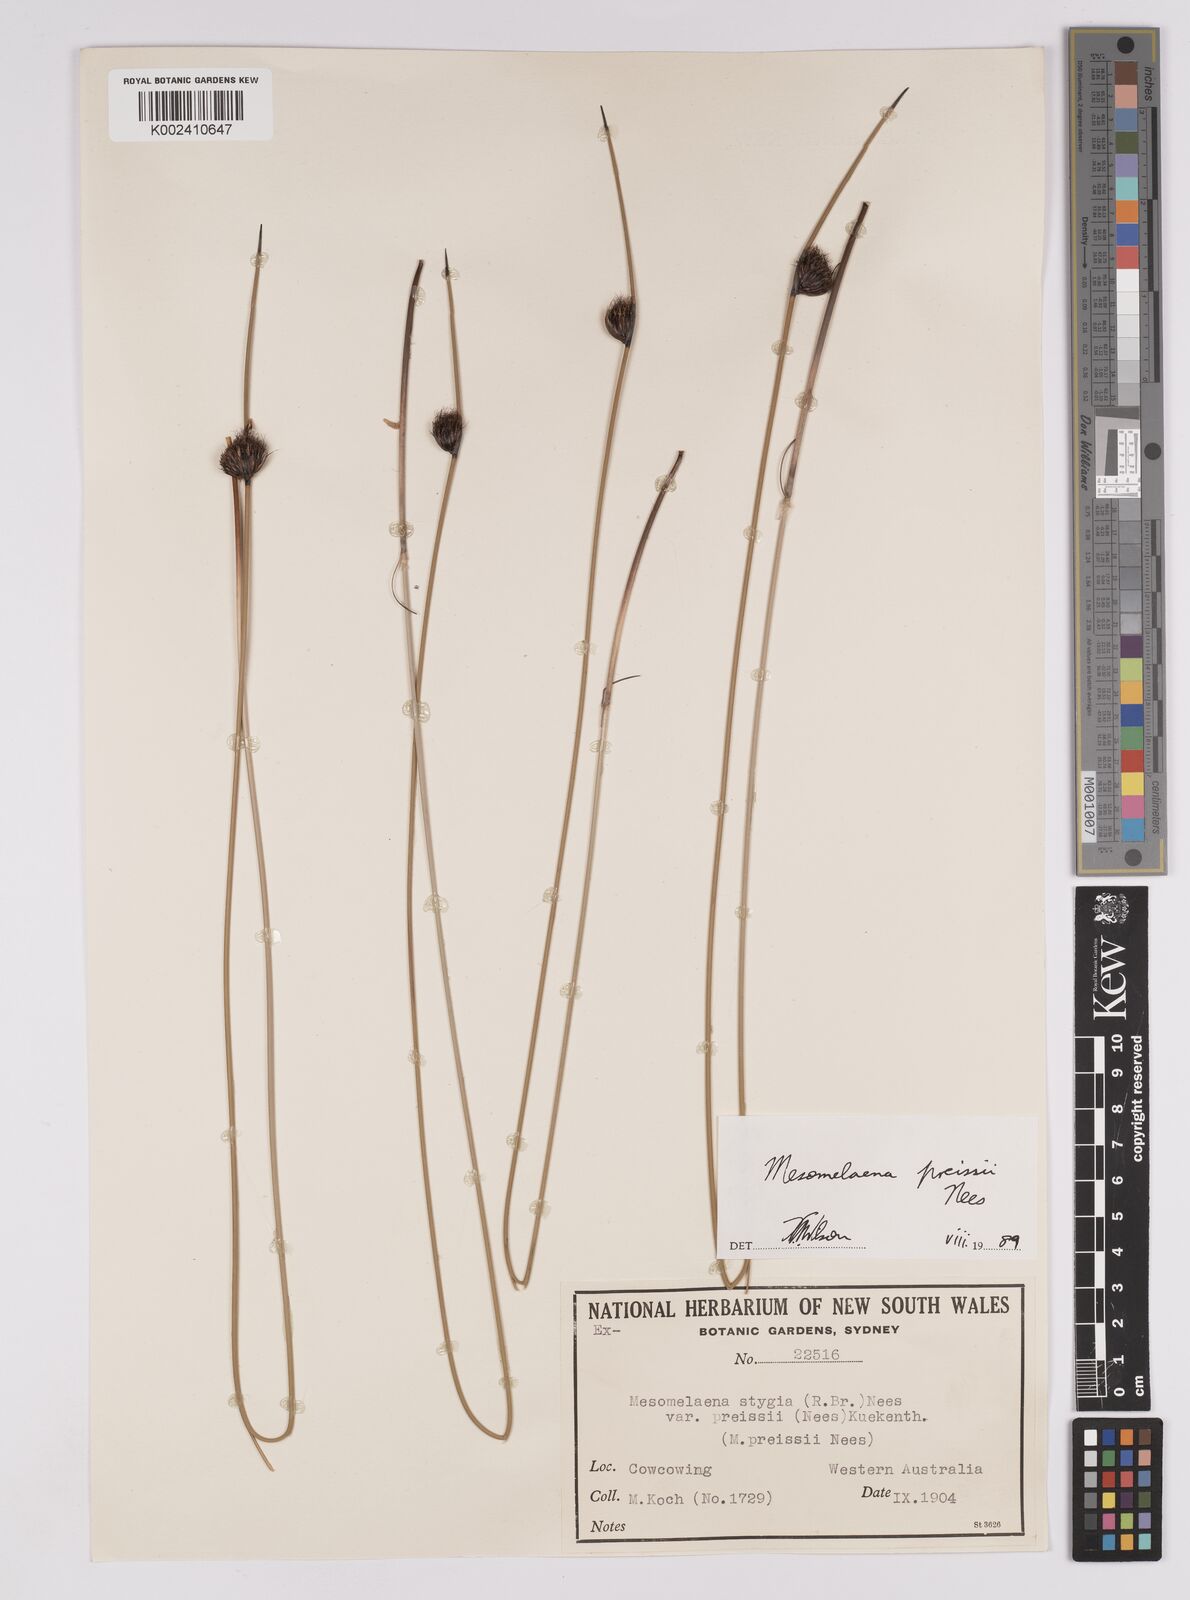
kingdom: Plantae
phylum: Tracheophyta
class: Liliopsida
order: Poales
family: Cyperaceae
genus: Mesomelaena
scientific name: Mesomelaena preissii
